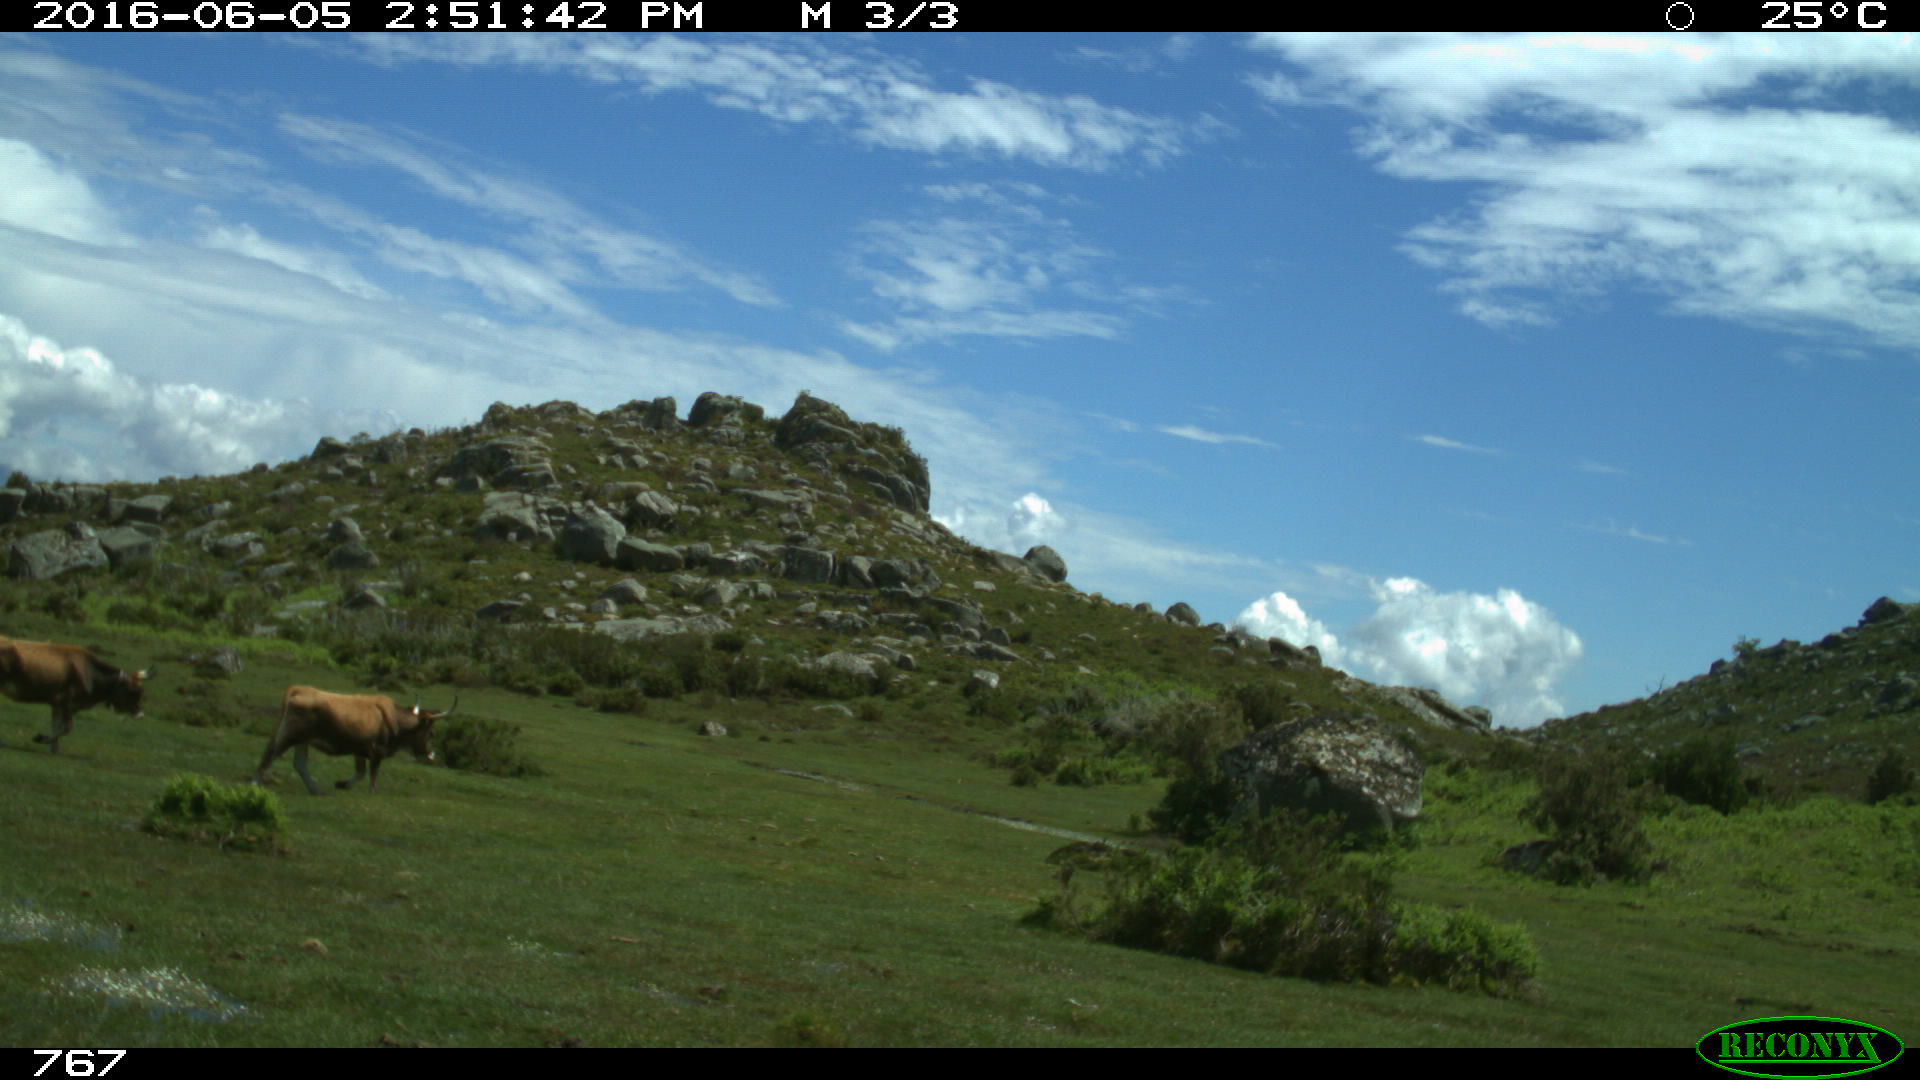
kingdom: Animalia
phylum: Chordata
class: Mammalia
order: Artiodactyla
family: Bovidae
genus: Bos
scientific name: Bos taurus
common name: Domesticated cattle
